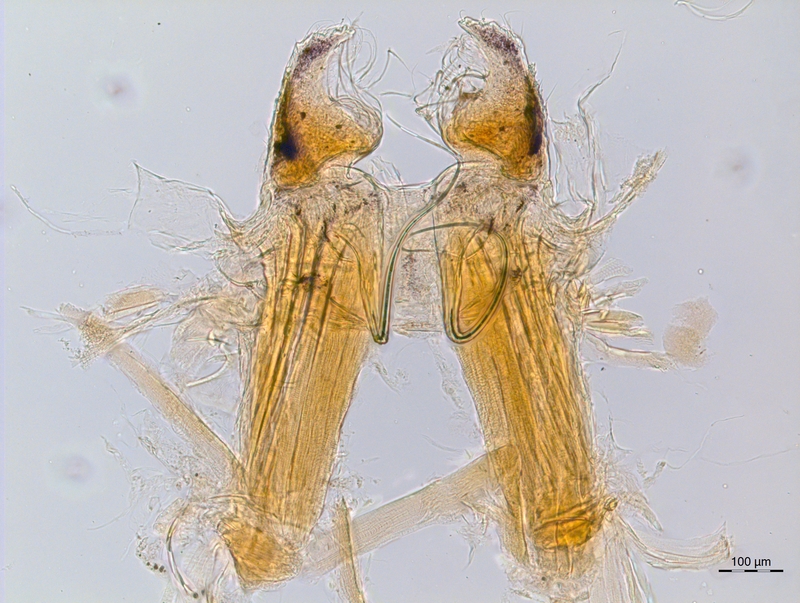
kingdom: Animalia
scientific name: Animalia
